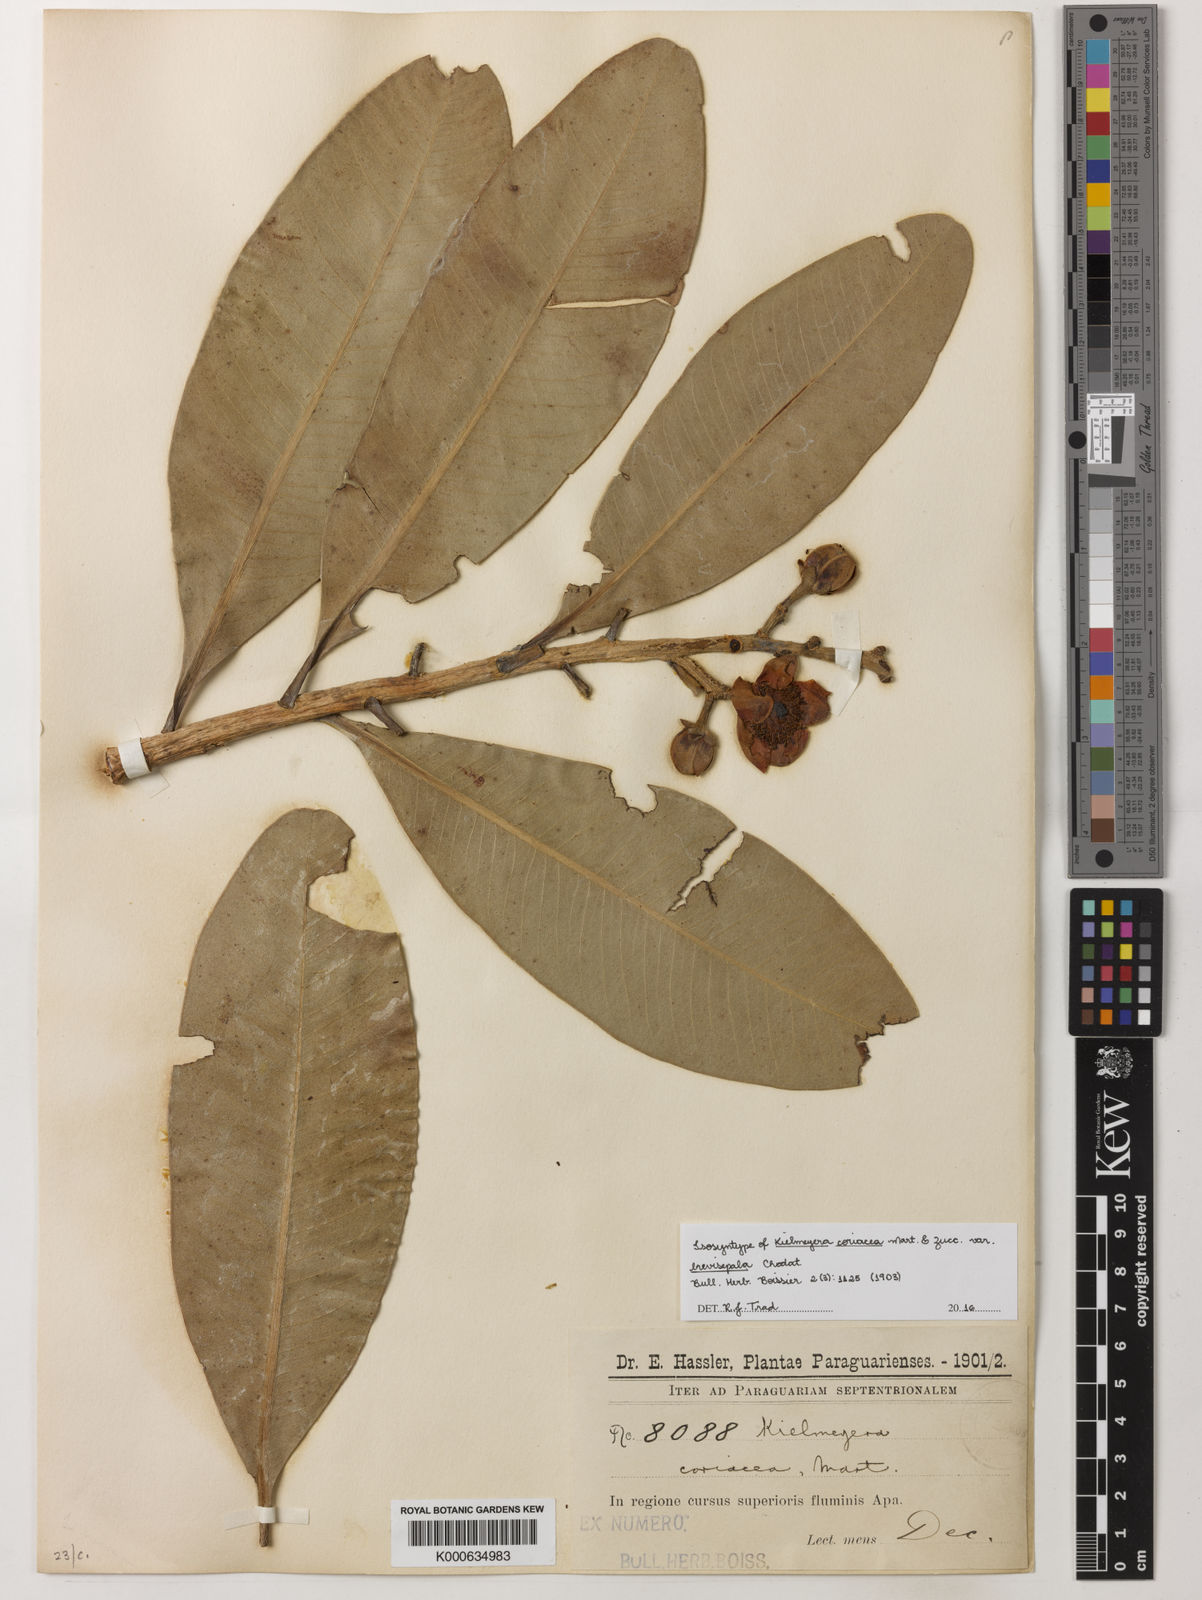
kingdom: Plantae
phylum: Tracheophyta
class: Magnoliopsida
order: Malpighiales
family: Calophyllaceae
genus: Kielmeyera
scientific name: Kielmeyera coriacea
